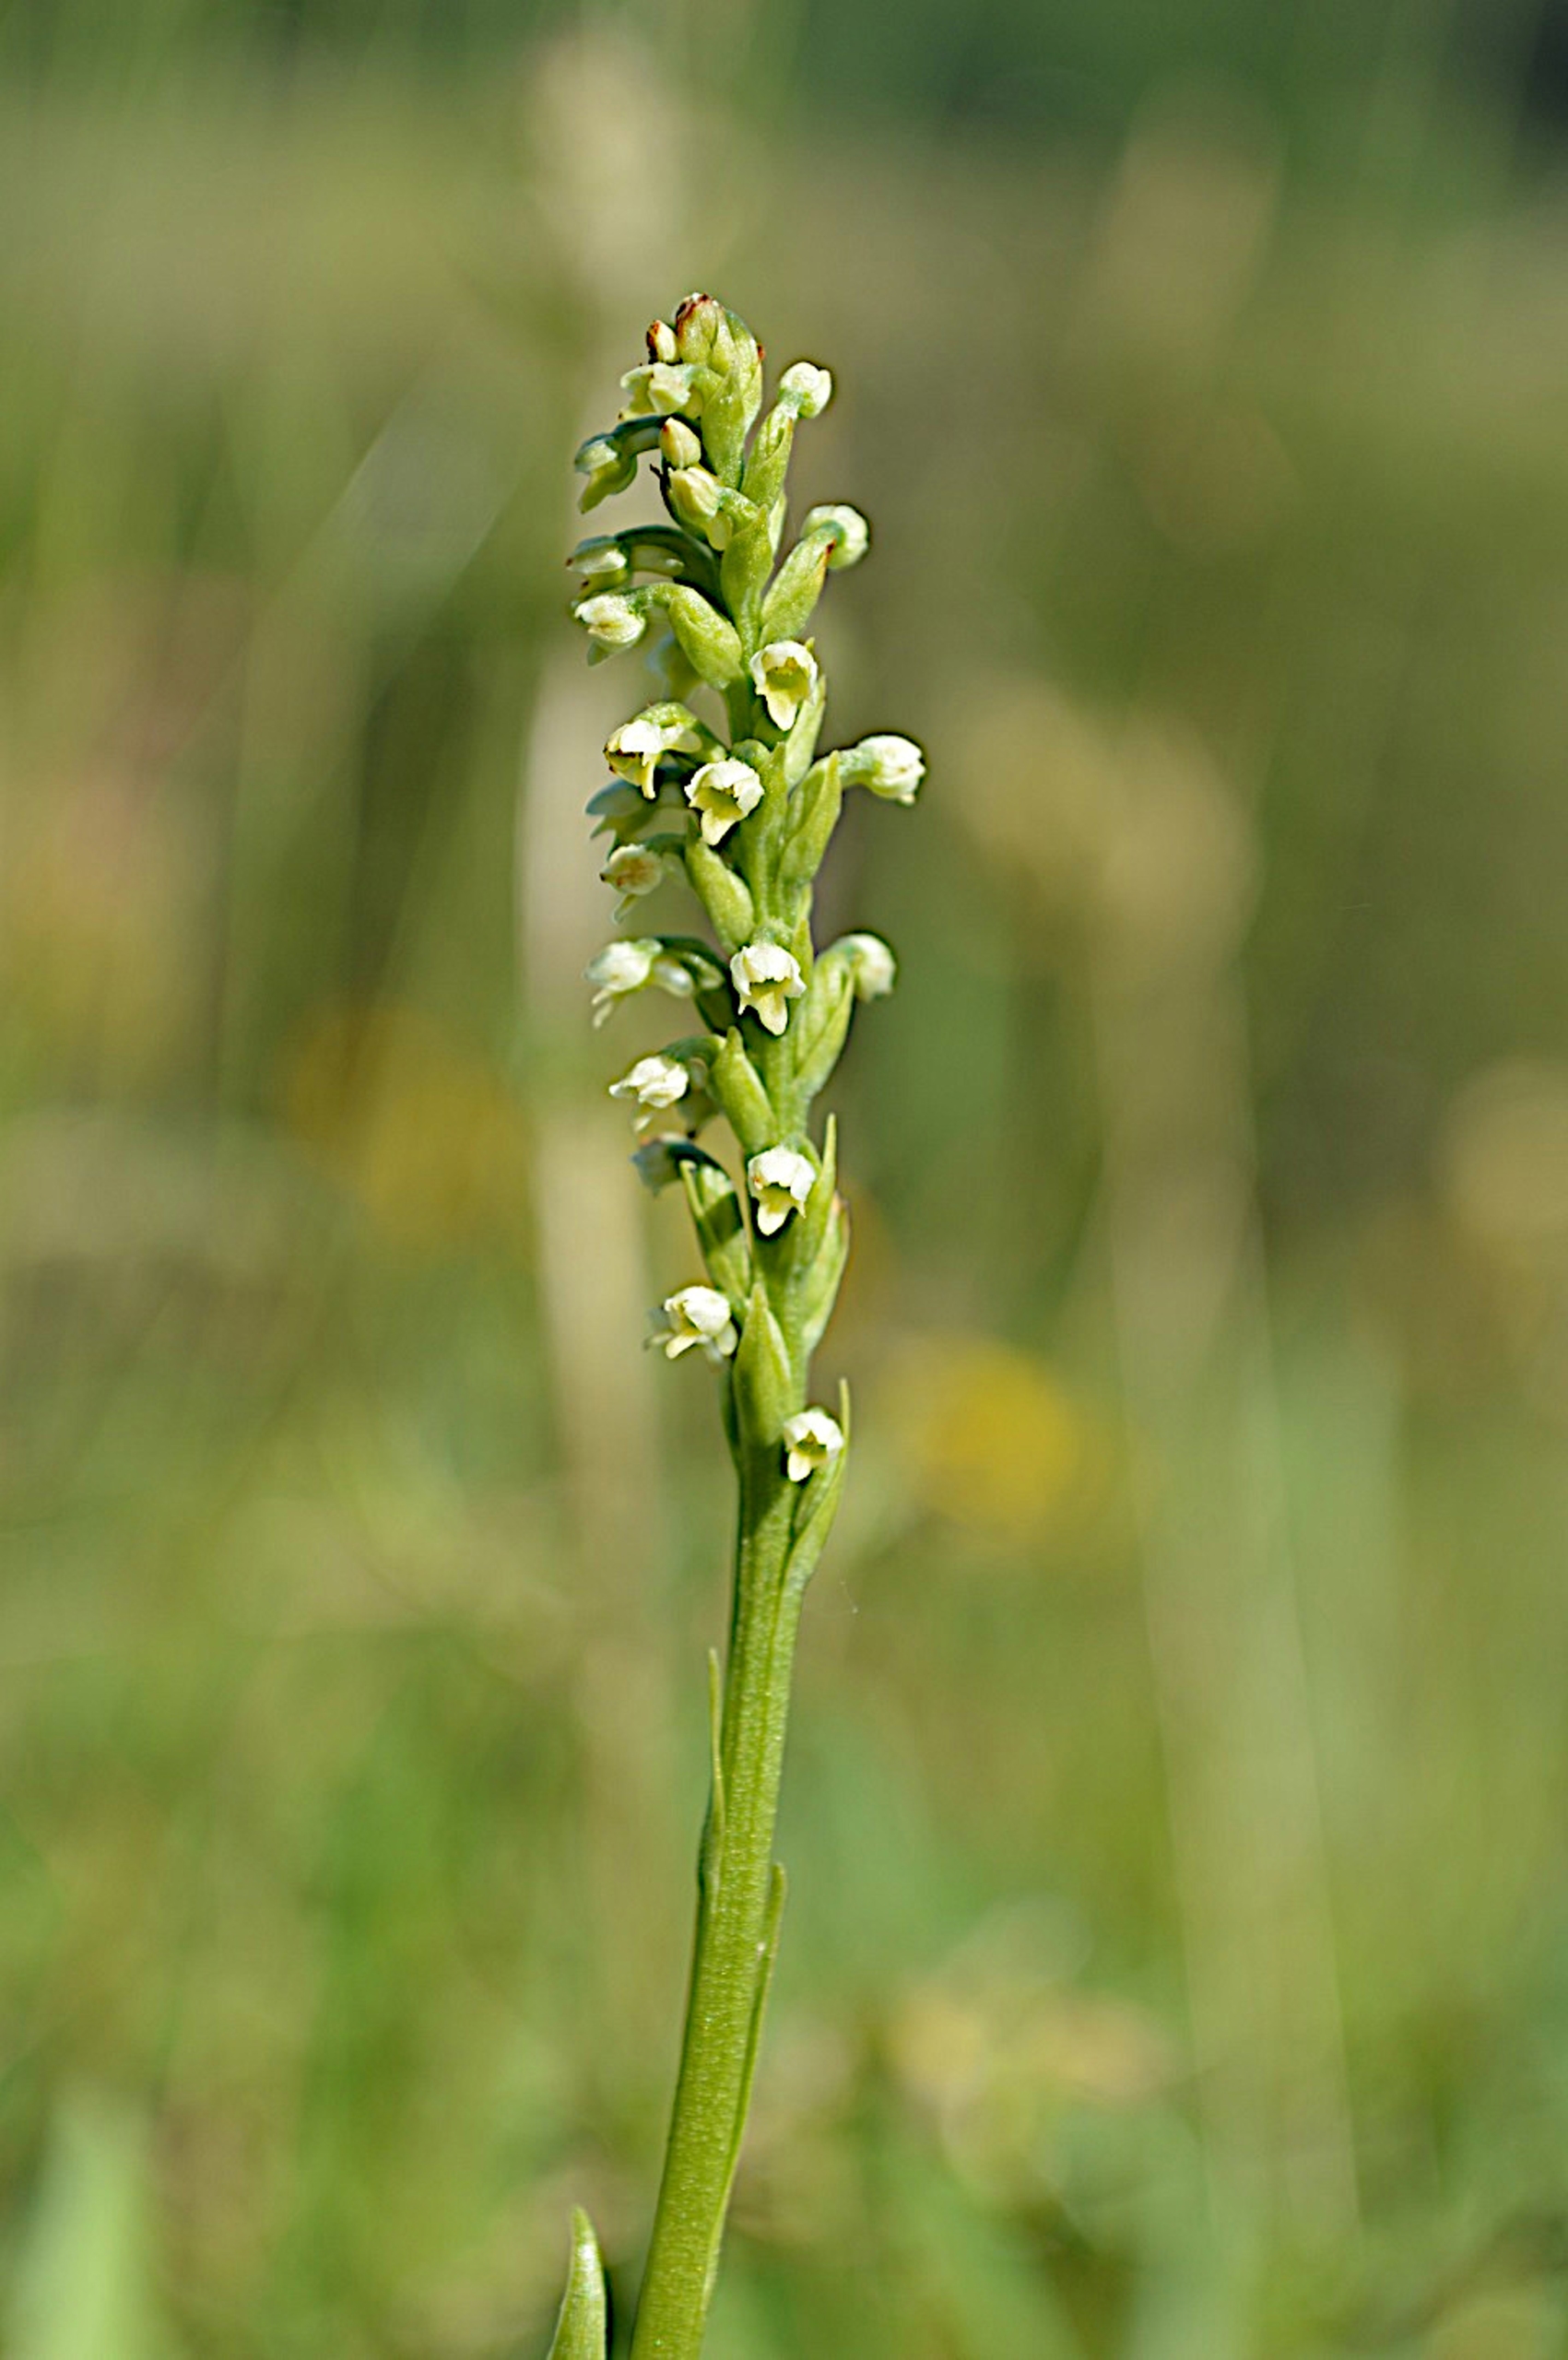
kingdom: Plantae
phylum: Tracheophyta
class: Liliopsida
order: Asparagales
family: Orchidaceae
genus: Pseudorchis
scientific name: Pseudorchis albida
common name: Hvid sækspore
